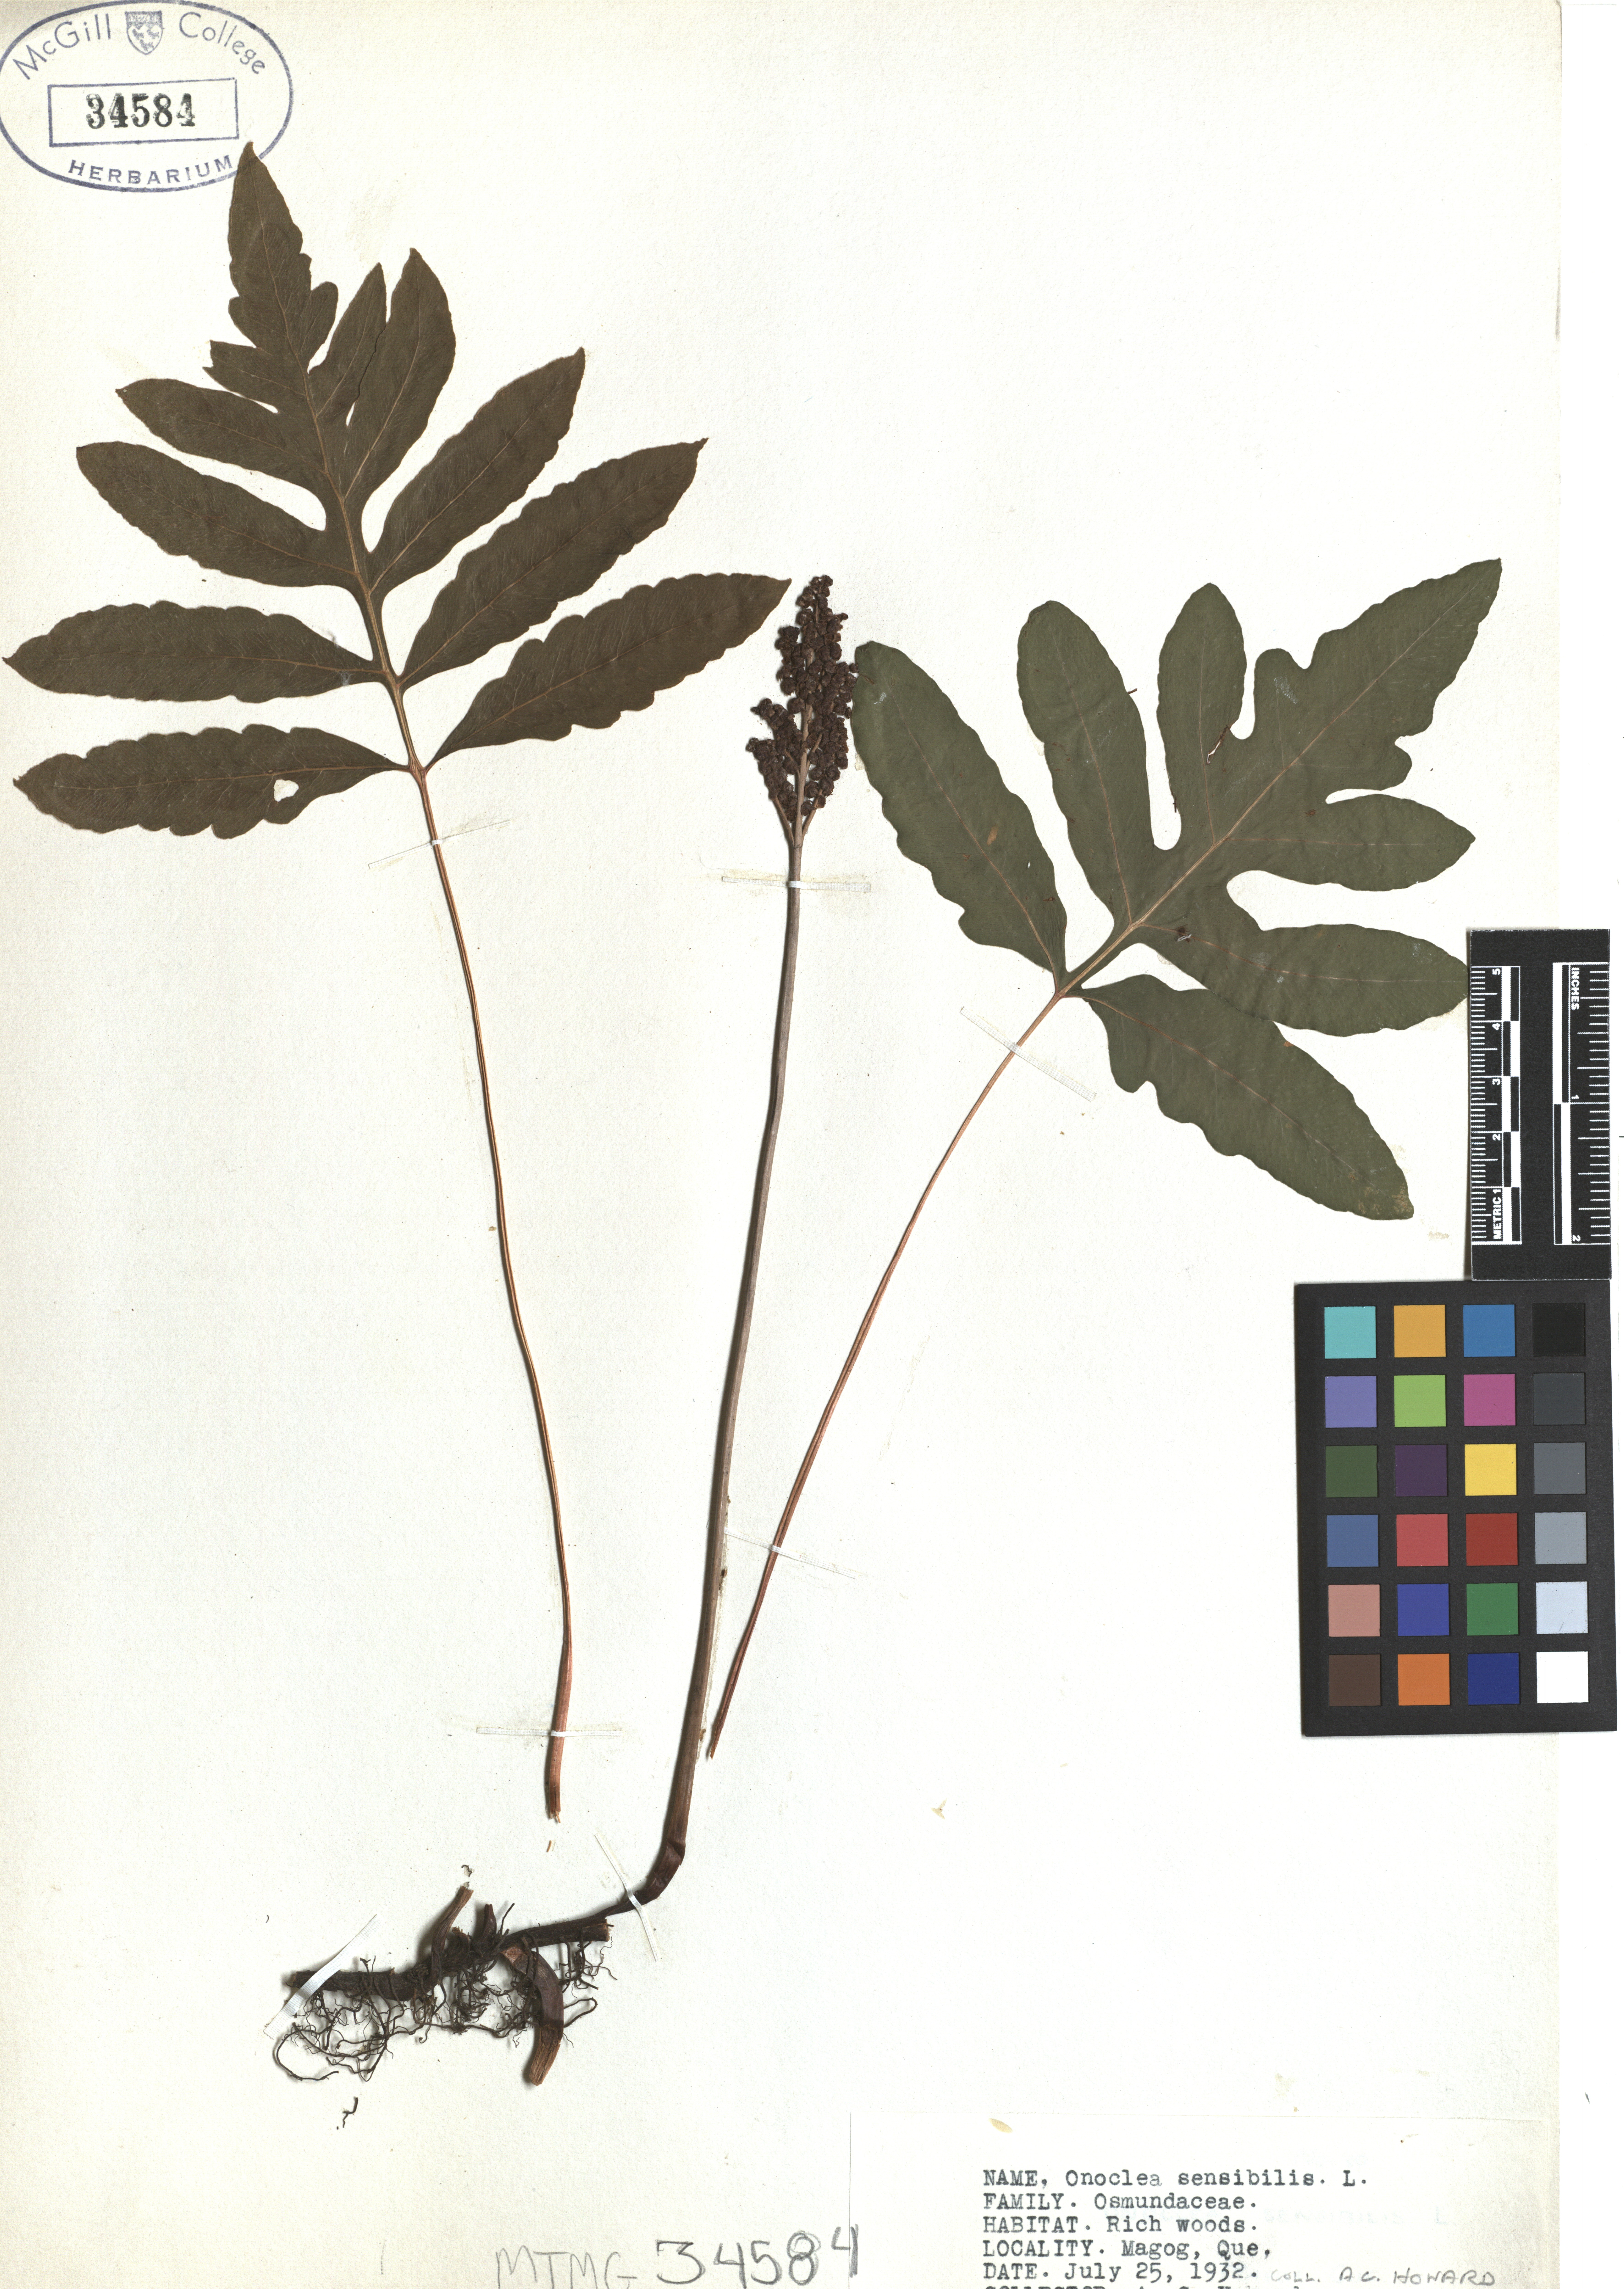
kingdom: Plantae
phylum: Tracheophyta
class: Polypodiopsida
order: Polypodiales
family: Onocleaceae
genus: Onoclea
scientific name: Onoclea sensibilis
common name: Sensitive fern
